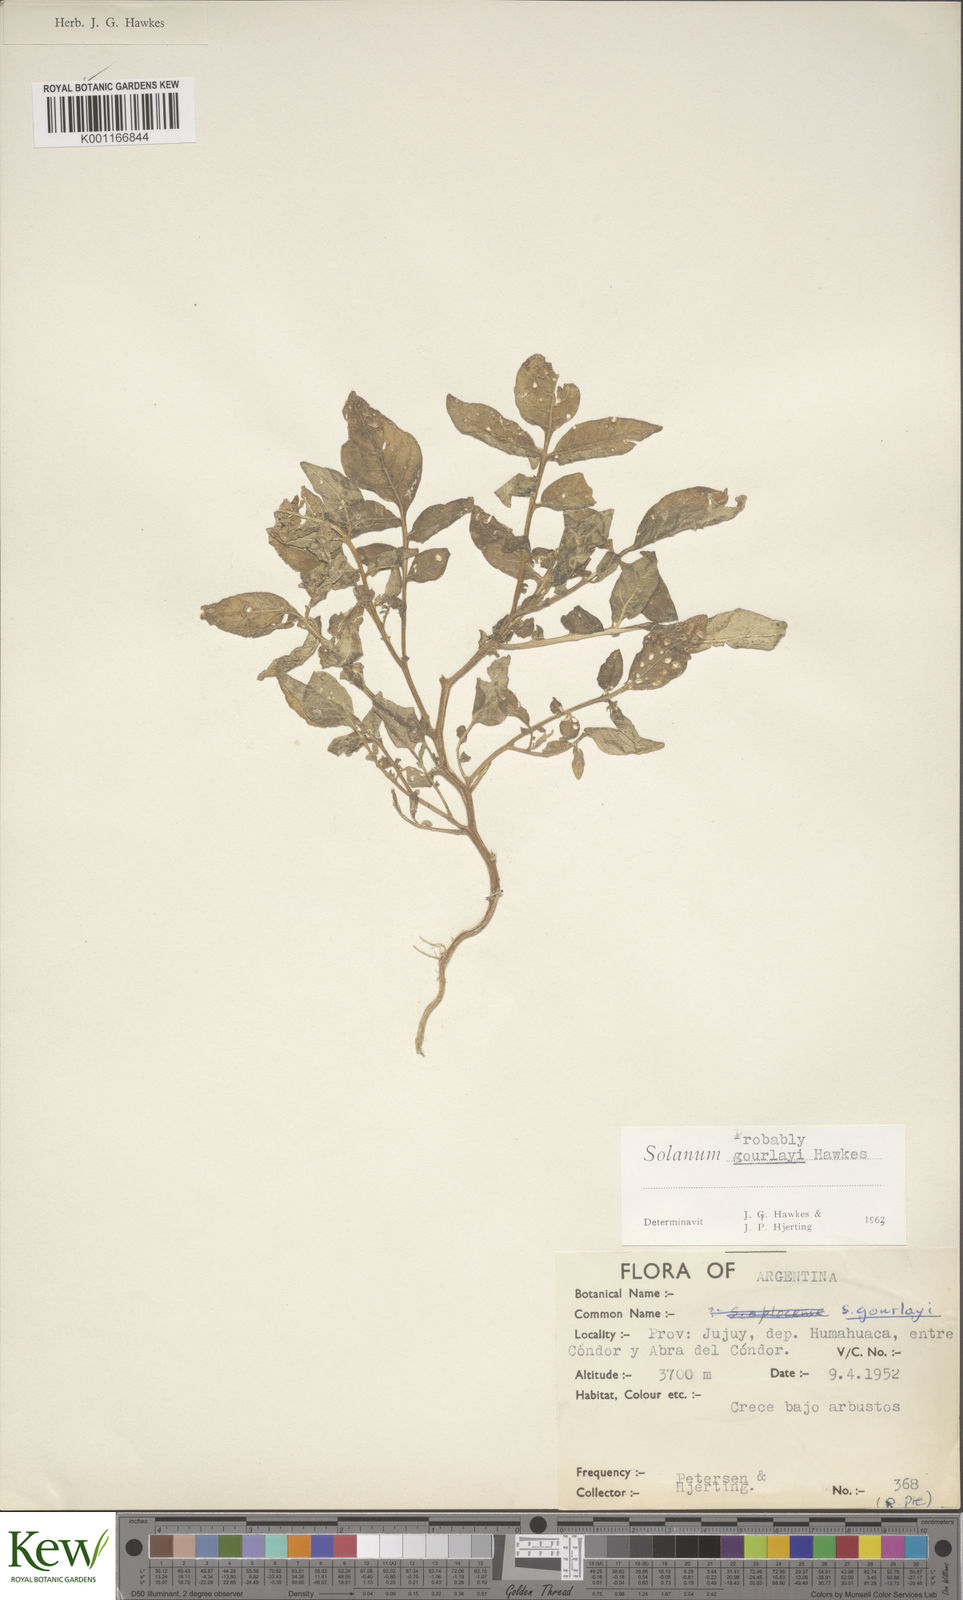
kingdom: Plantae
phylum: Tracheophyta
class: Magnoliopsida
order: Solanales
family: Solanaceae
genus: Solanum
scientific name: Solanum brevicaule
